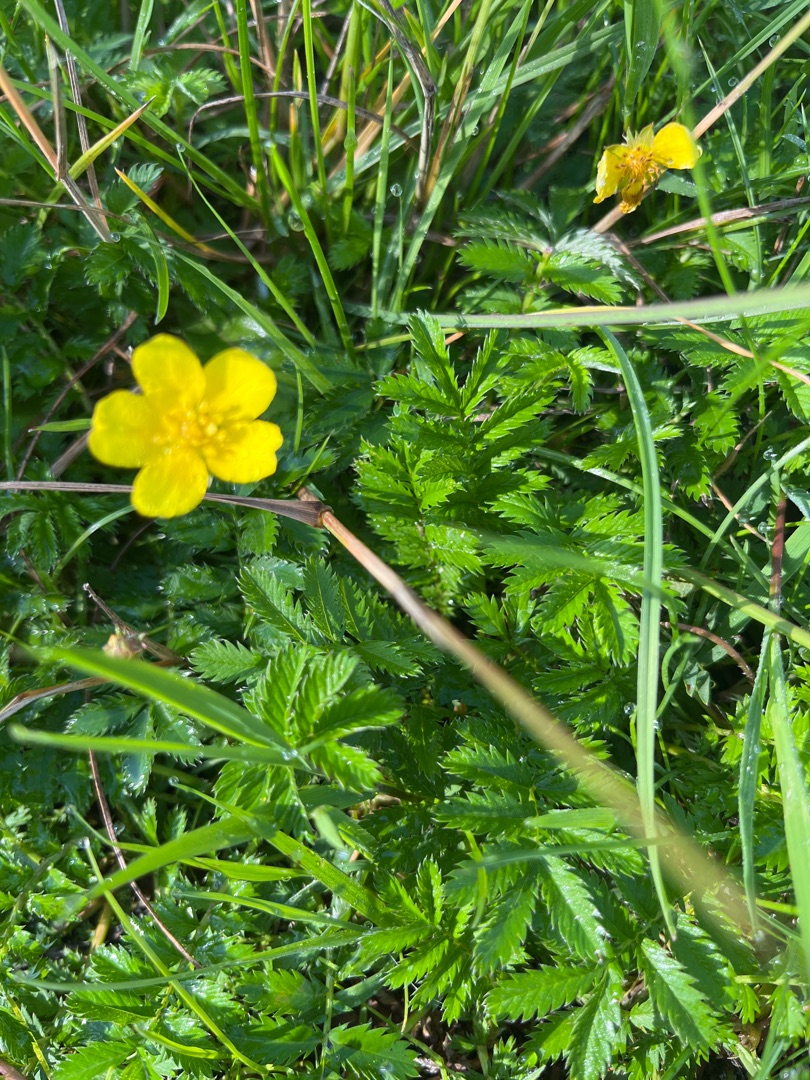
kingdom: Plantae
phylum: Tracheophyta
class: Magnoliopsida
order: Rosales
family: Rosaceae
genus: Argentina
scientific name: Argentina anserina
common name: Gåsepotentil
